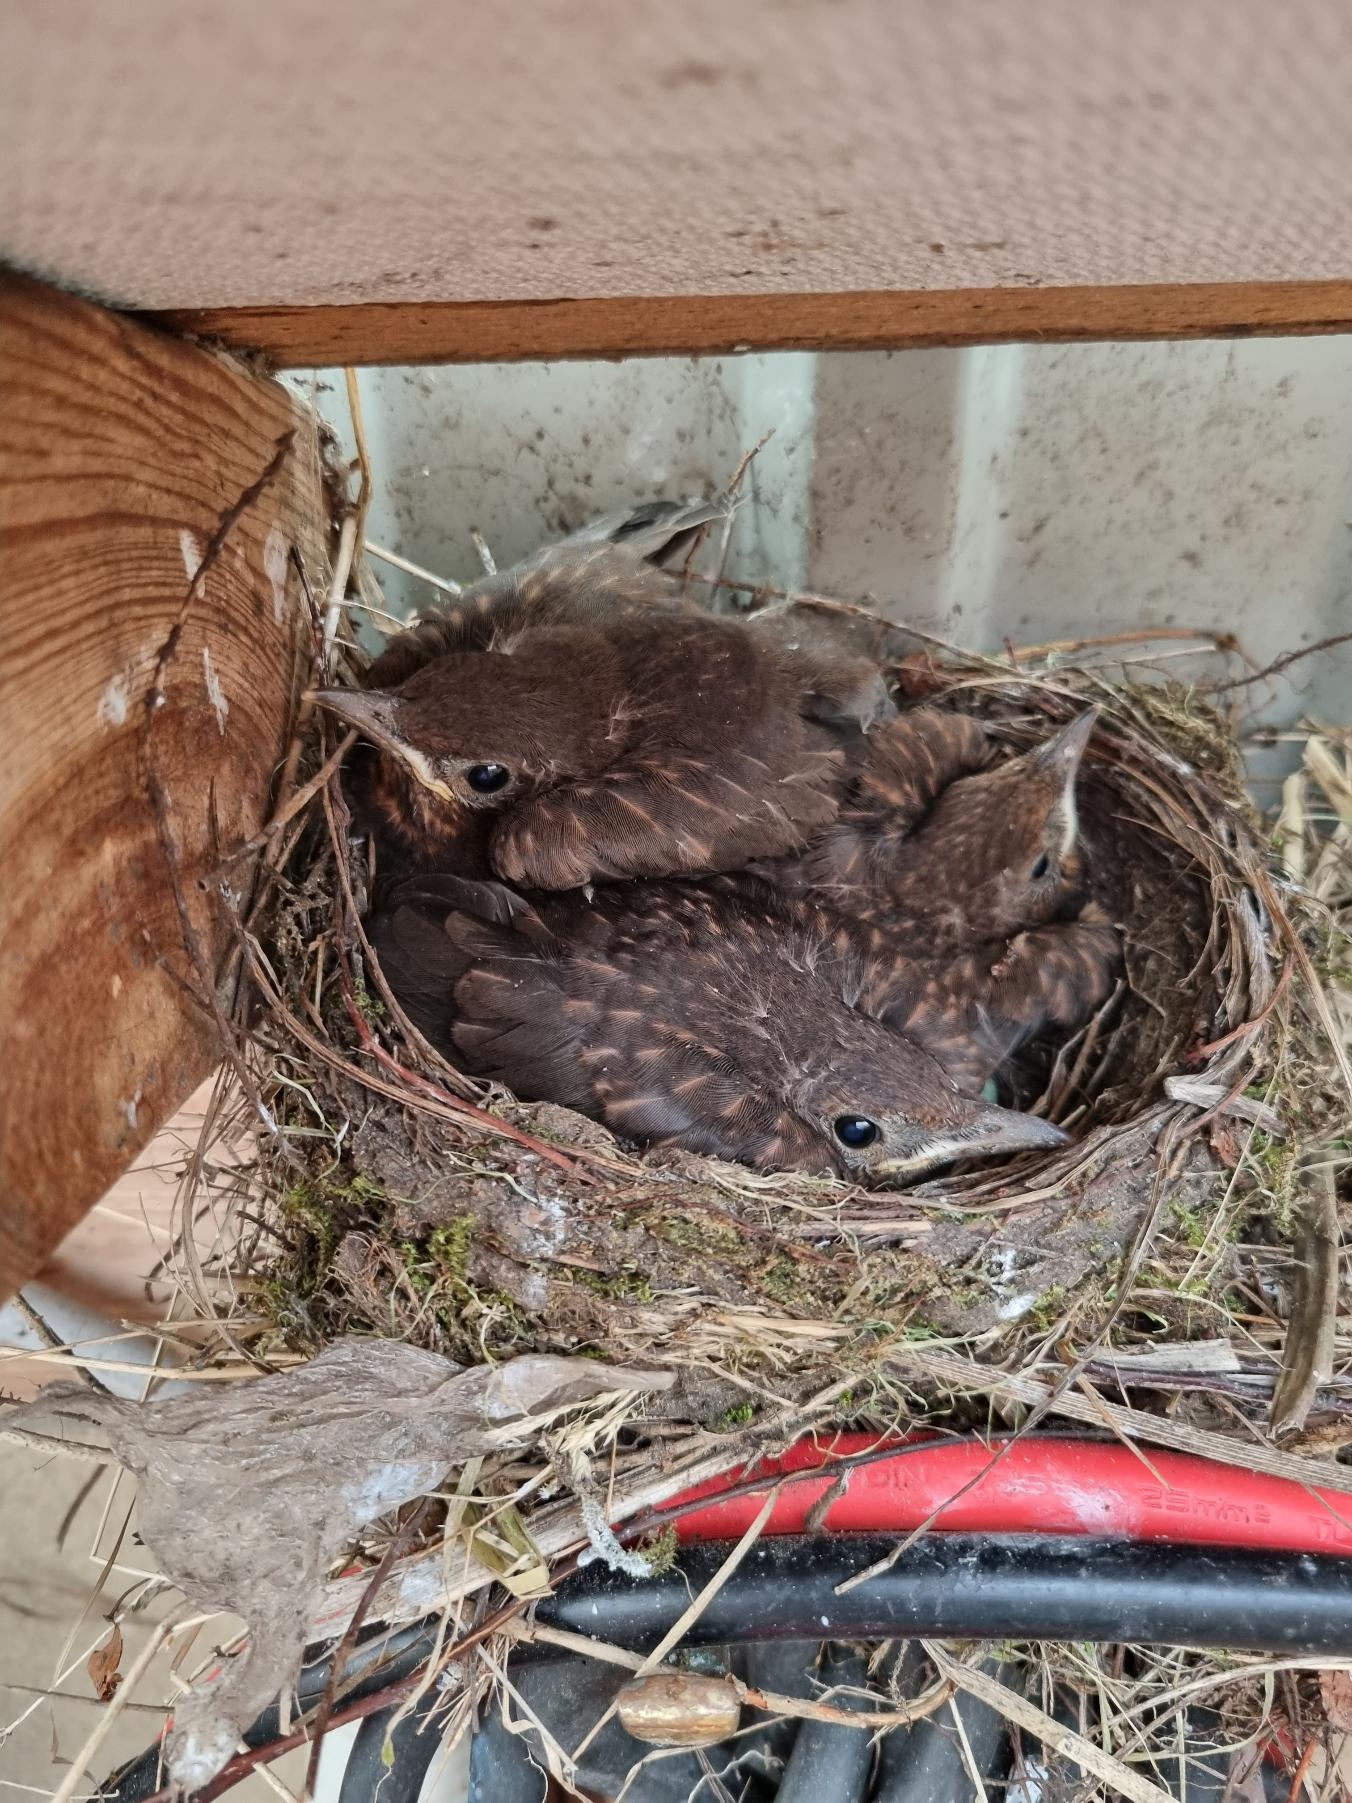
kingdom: Animalia
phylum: Chordata
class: Aves
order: Passeriformes
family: Turdidae
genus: Turdus
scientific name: Turdus merula
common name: Solsort
